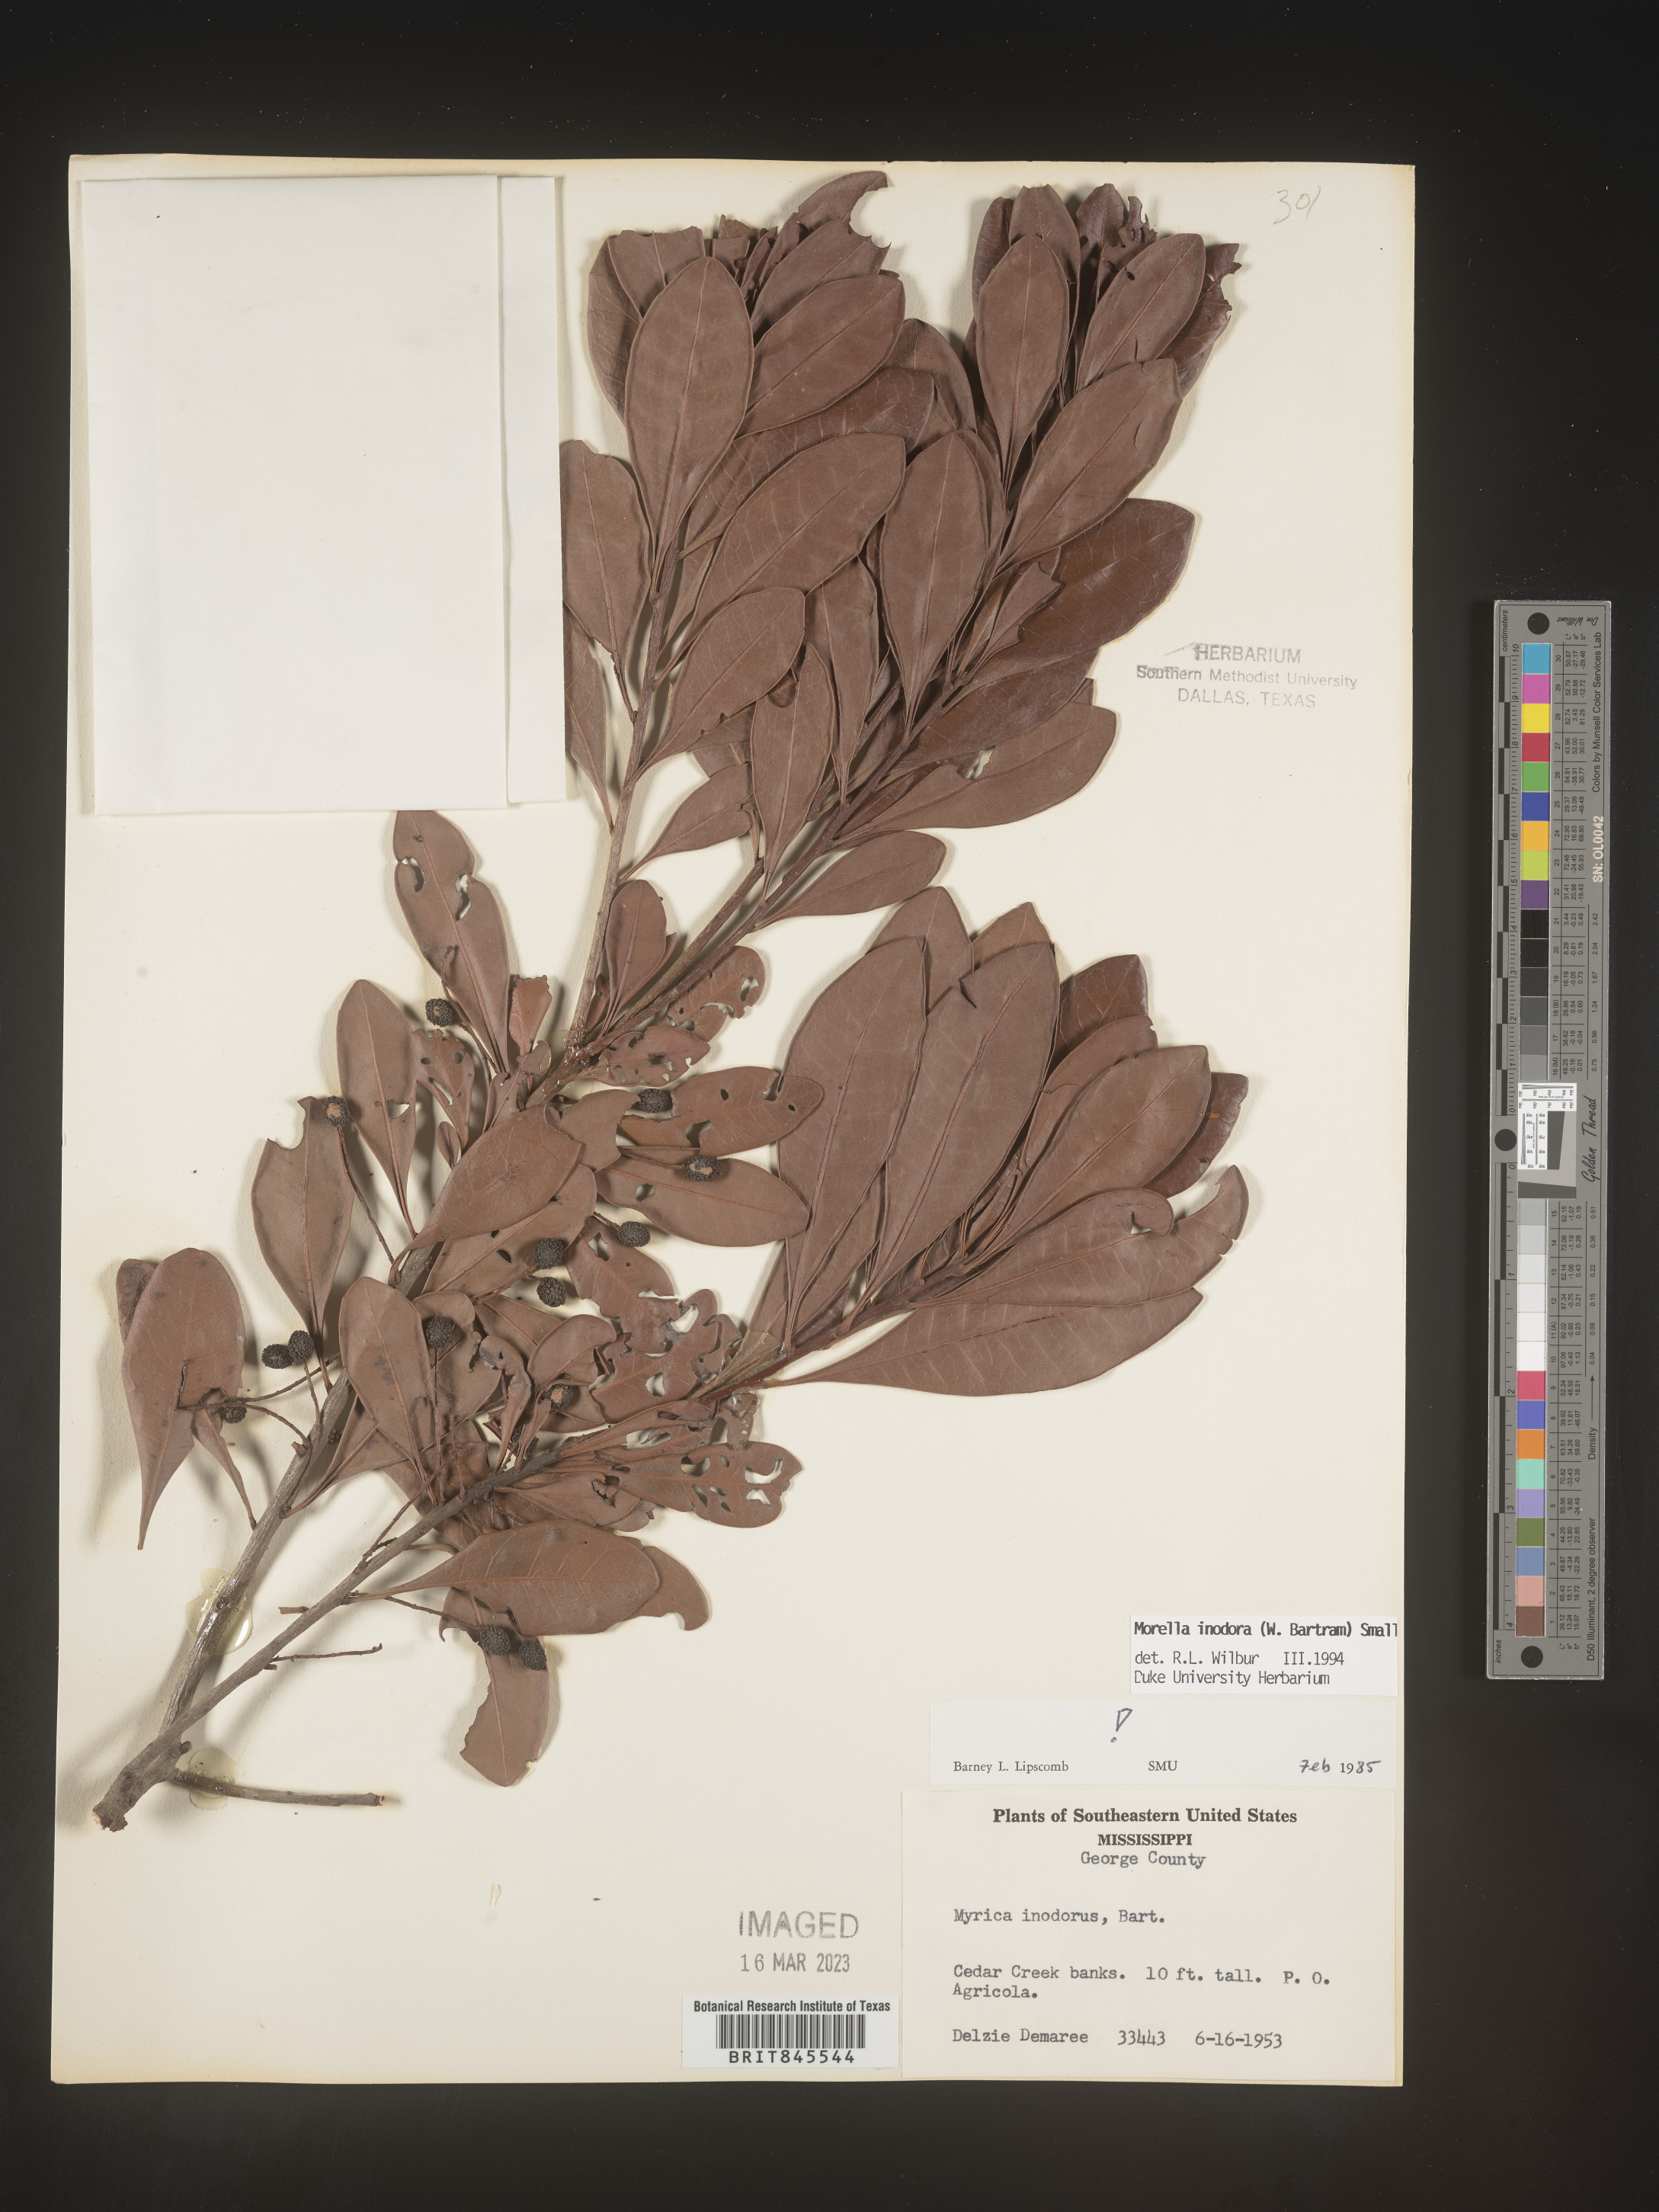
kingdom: Plantae
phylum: Tracheophyta
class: Magnoliopsida
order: Fagales
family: Myricaceae
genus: Myrica
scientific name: Myrica
